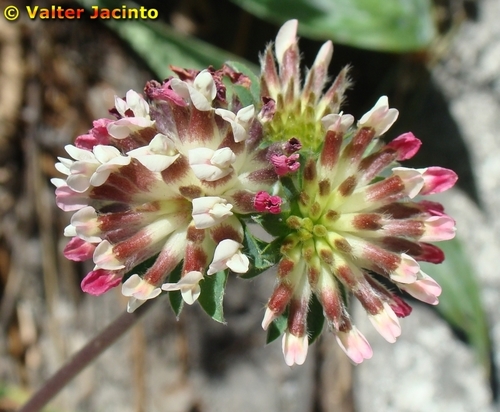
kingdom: Plantae
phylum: Tracheophyta
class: Magnoliopsida
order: Fabales
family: Fabaceae
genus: Anthyllis
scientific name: Anthyllis vulneraria
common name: Kidney vetch
